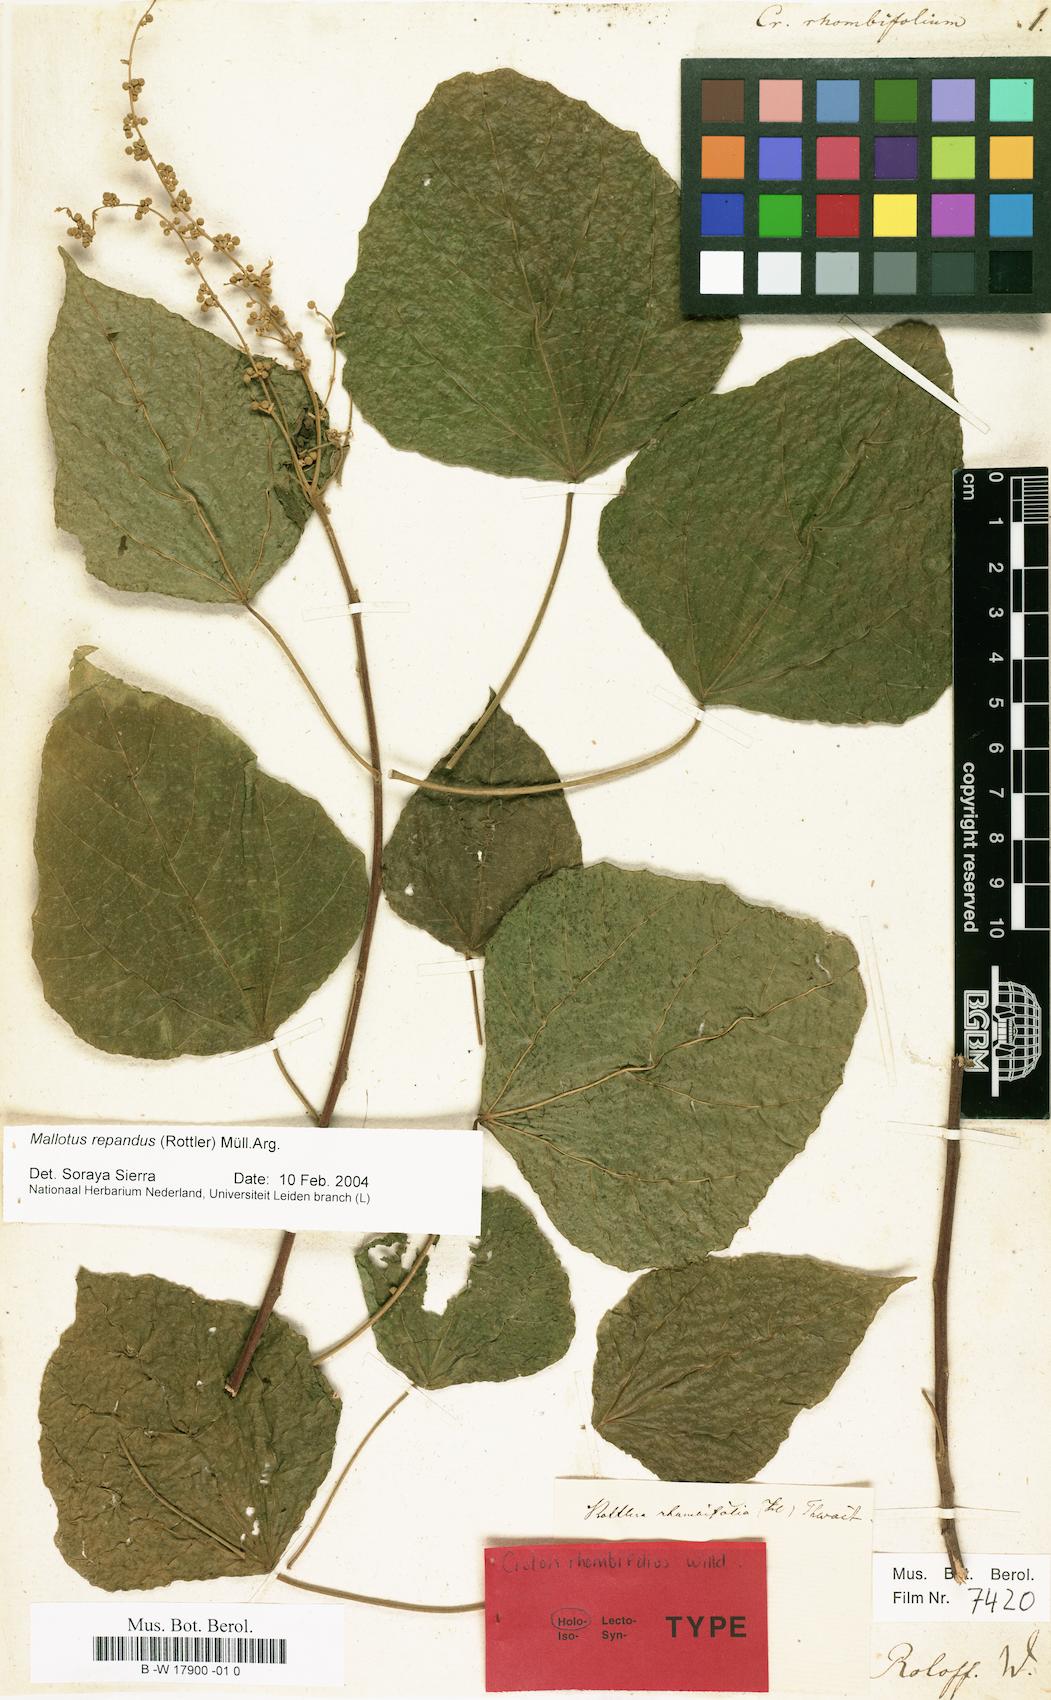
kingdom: Plantae
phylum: Tracheophyta
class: Magnoliopsida
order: Malpighiales
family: Euphorbiaceae
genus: Mallotus
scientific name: Mallotus repandus
